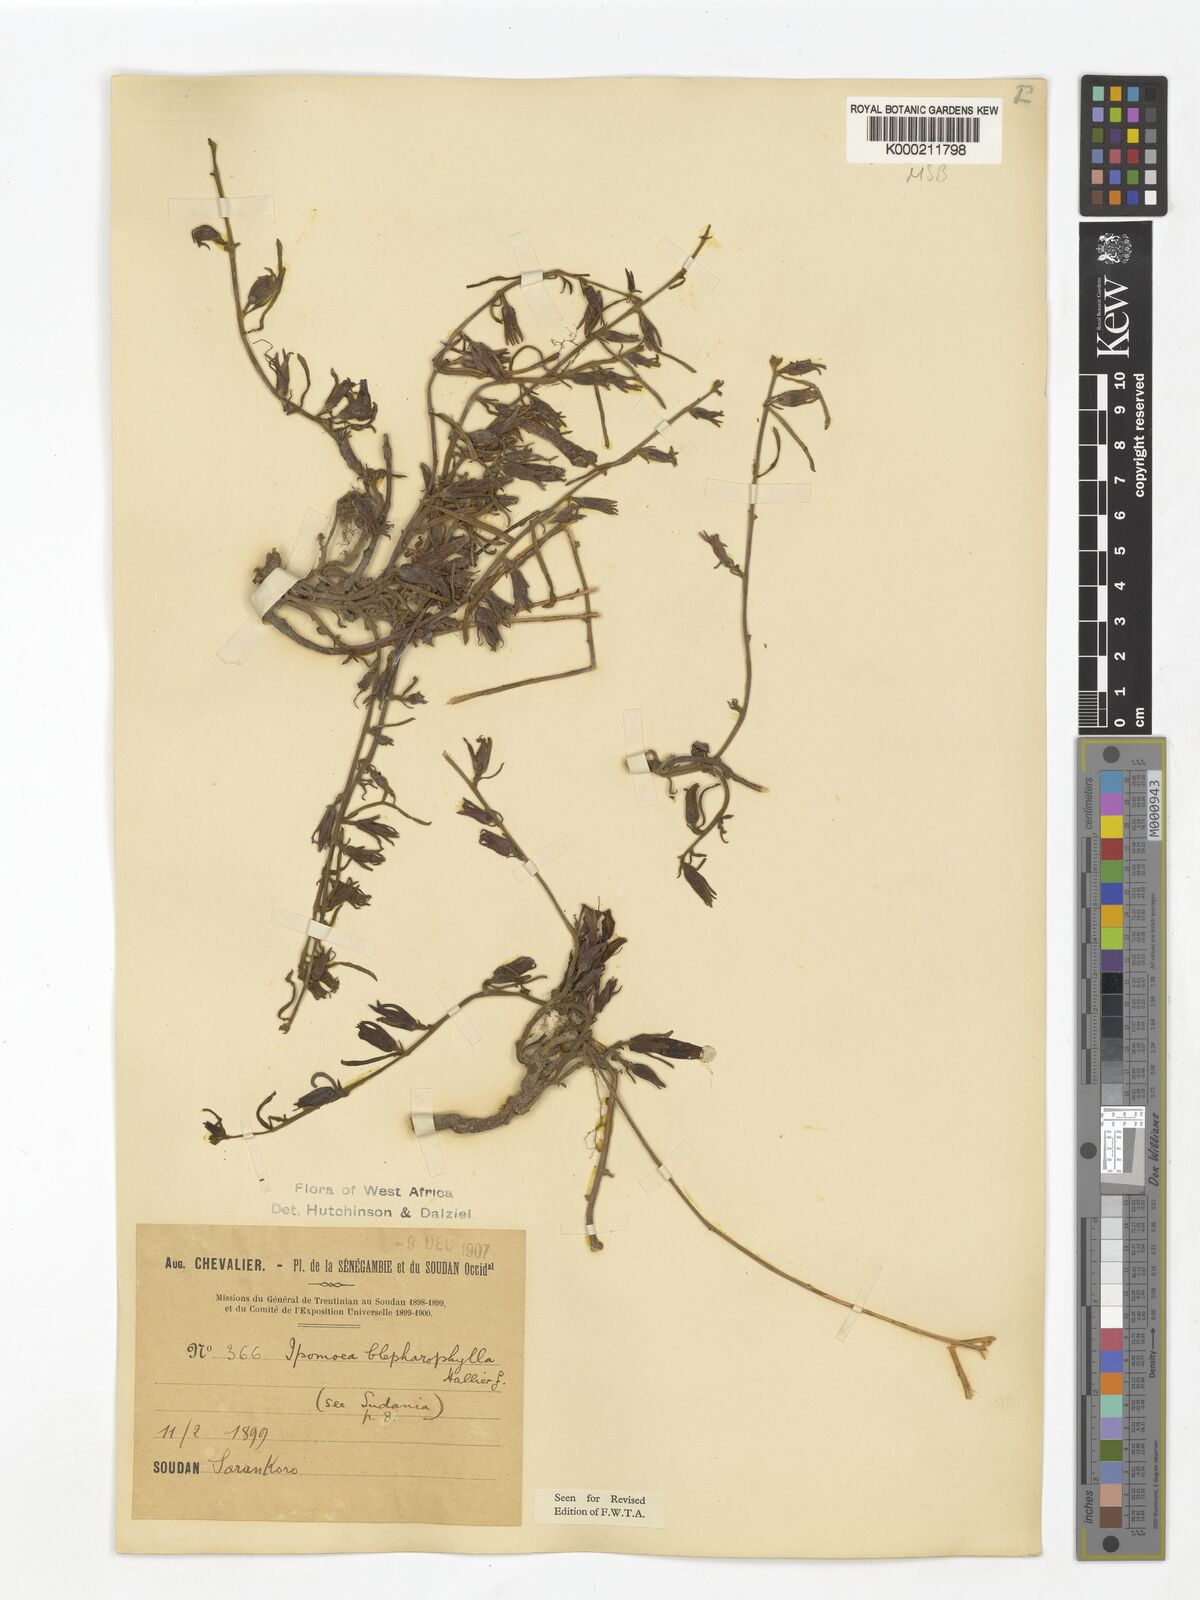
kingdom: Plantae
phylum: Tracheophyta
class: Magnoliopsida
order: Solanales
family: Convolvulaceae
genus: Ipomoea
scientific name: Ipomoea blepharophylla
